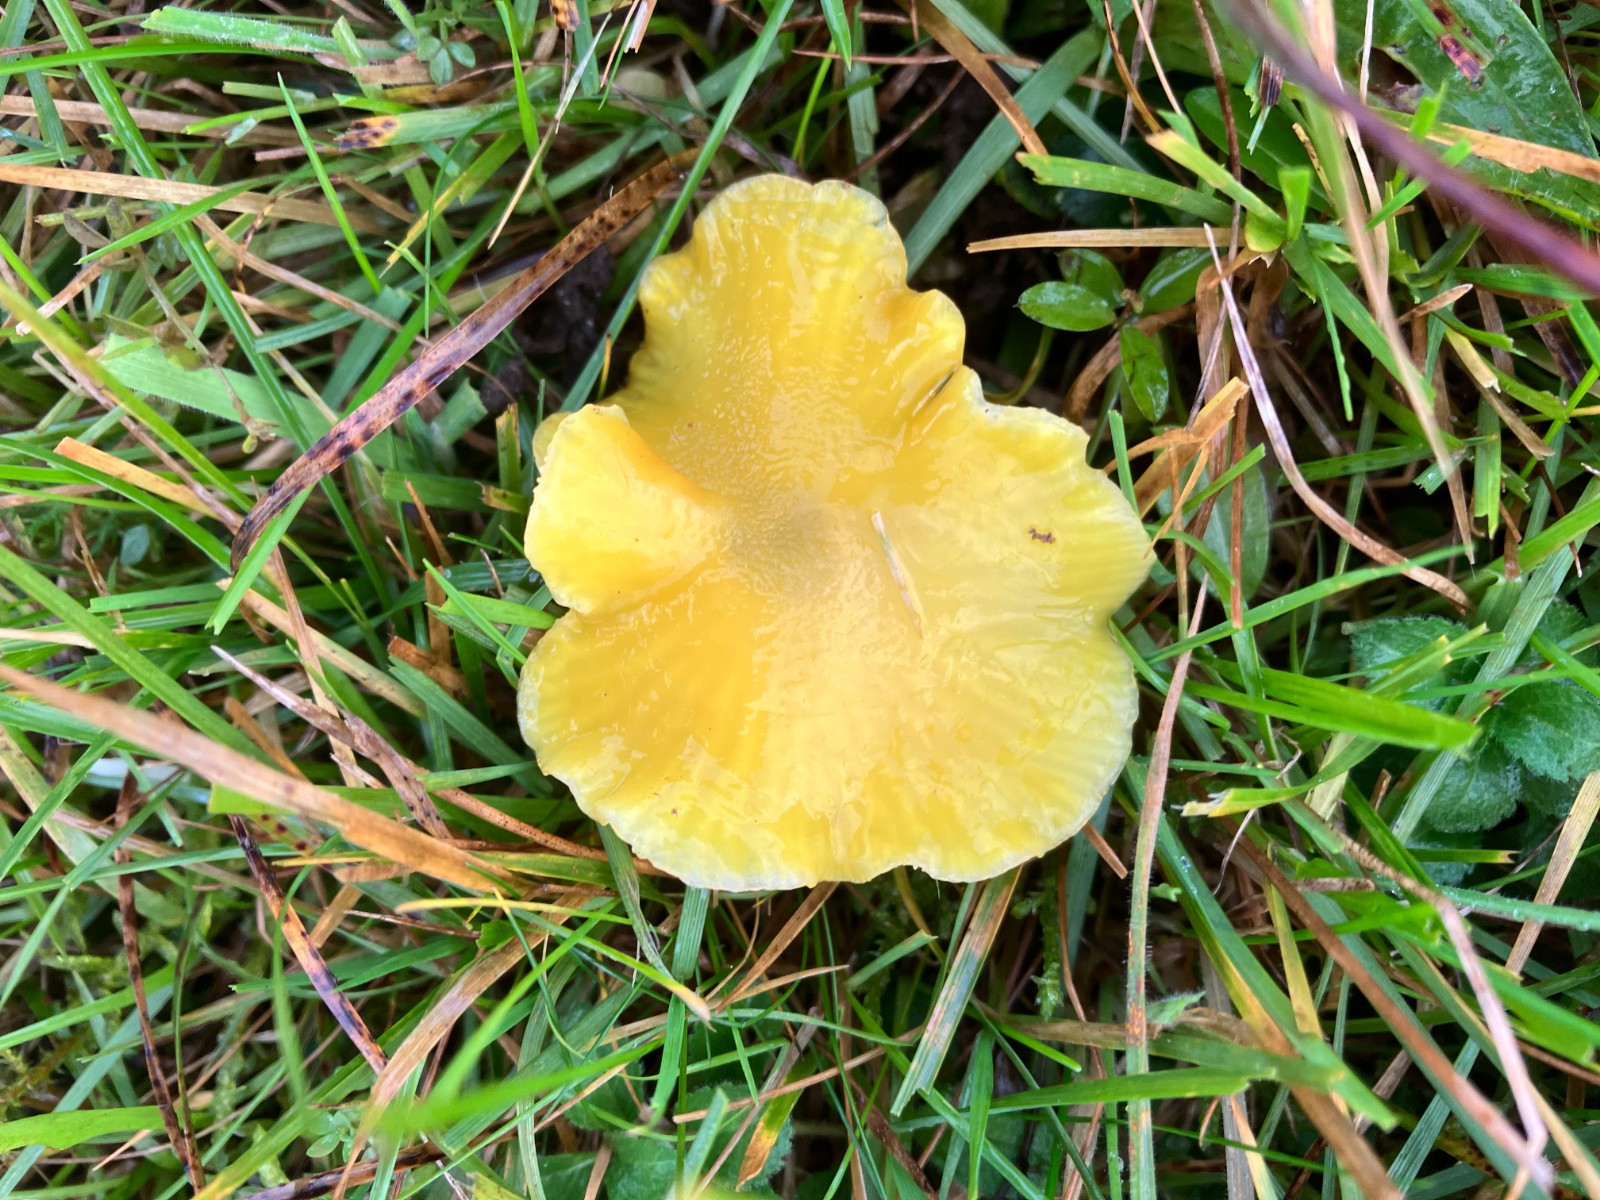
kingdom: Fungi
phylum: Basidiomycota
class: Agaricomycetes
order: Agaricales
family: Hygrophoraceae
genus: Hygrocybe
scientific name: Hygrocybe chlorophana
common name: gul vokshat
